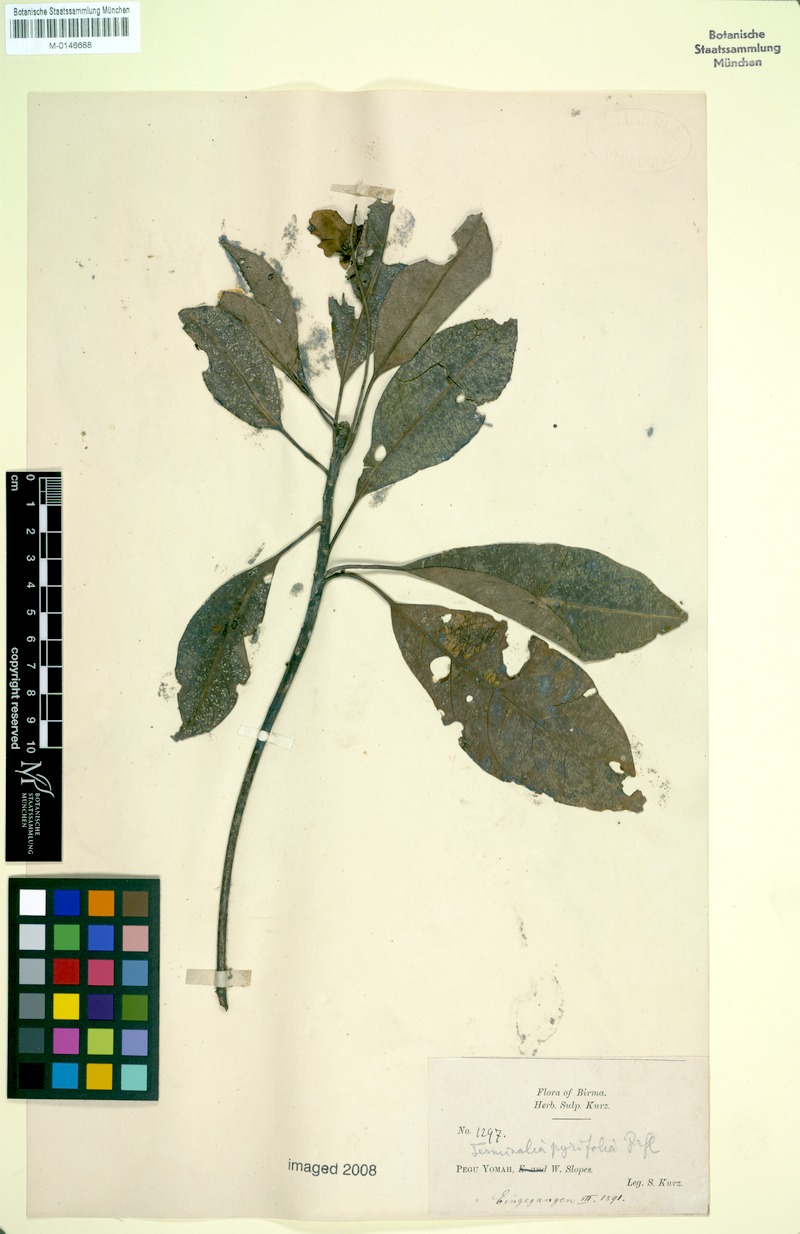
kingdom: Plantae
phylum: Tracheophyta
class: Magnoliopsida
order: Myrtales
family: Combretaceae
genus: Terminalia
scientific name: Terminalia calamansanai
